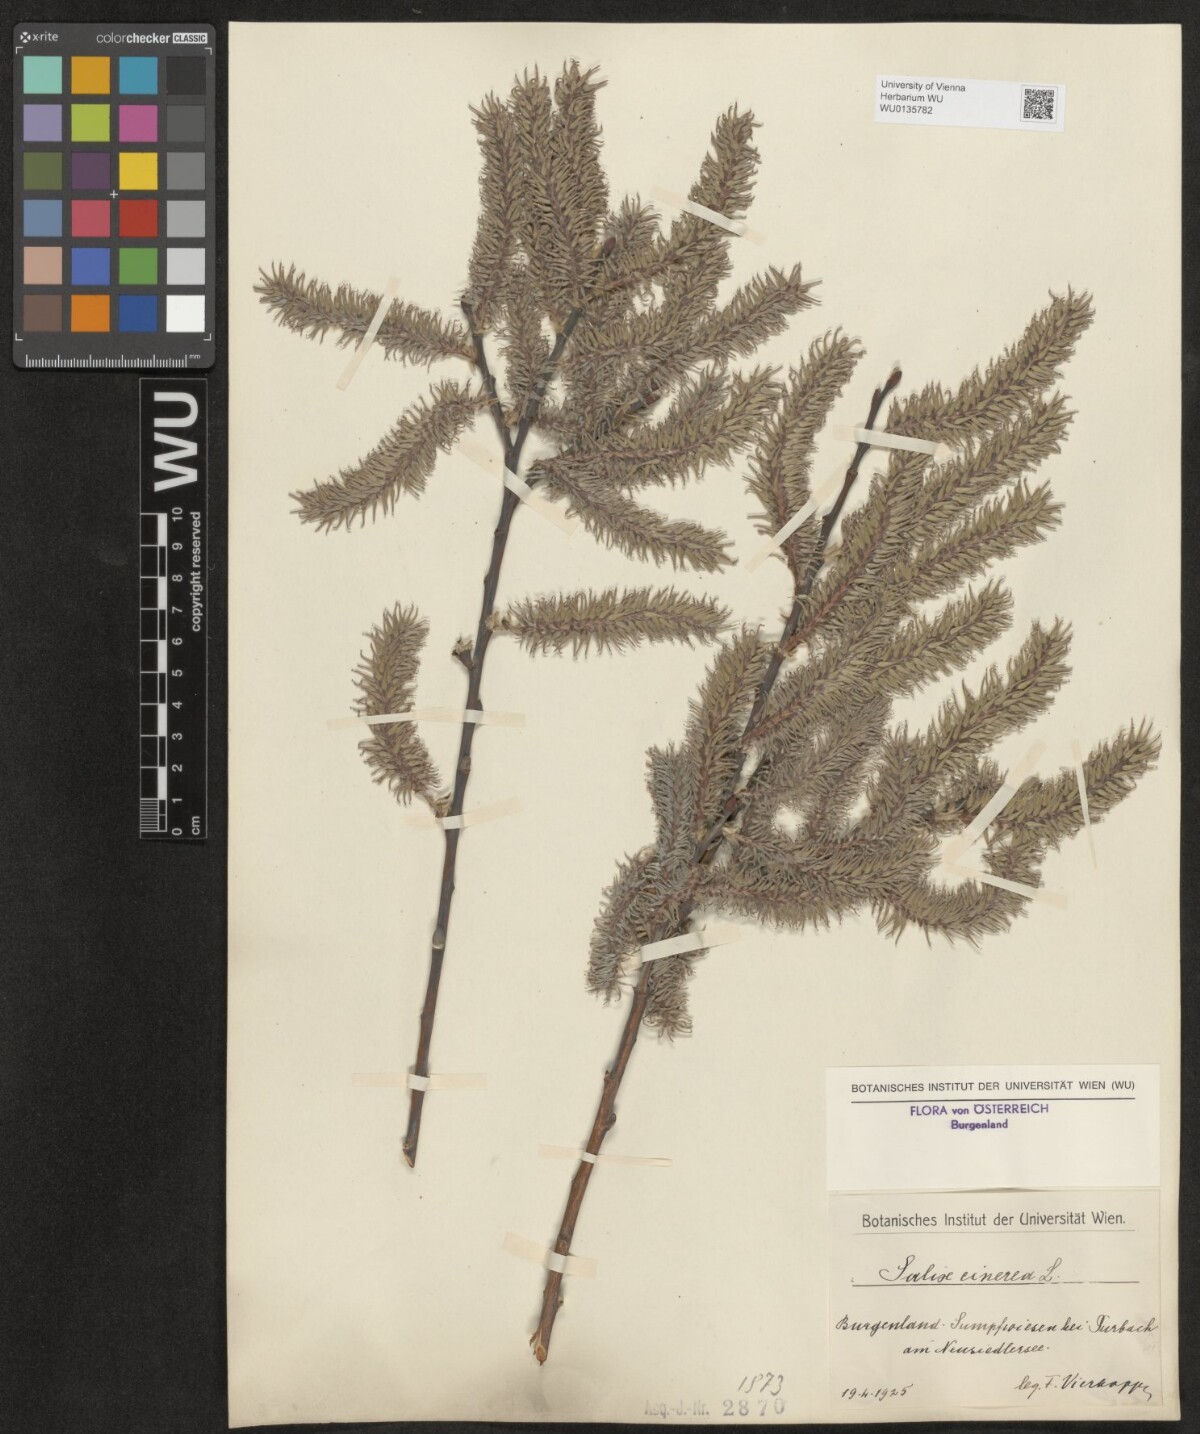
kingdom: Plantae
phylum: Tracheophyta
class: Magnoliopsida
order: Malpighiales
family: Salicaceae
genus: Salix
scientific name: Salix cinerea
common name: Common sallow
